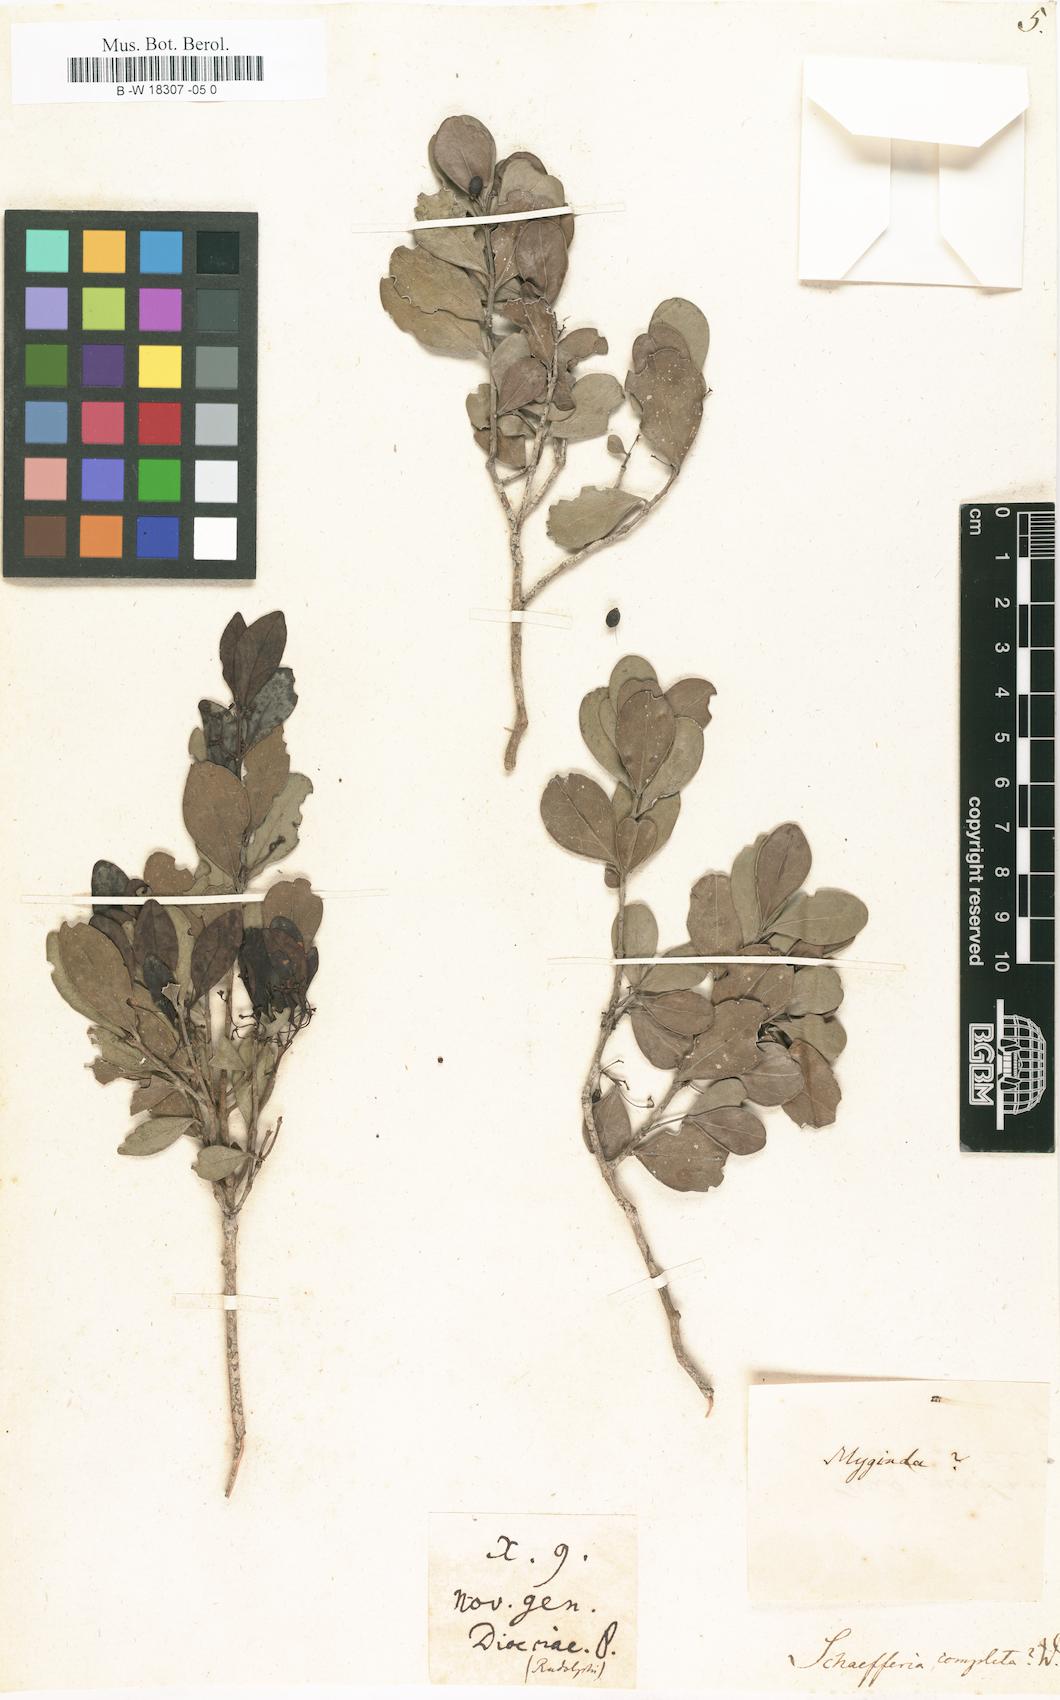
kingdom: Plantae
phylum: Tracheophyta
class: Magnoliopsida
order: Celastrales
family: Celastraceae
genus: Schaefferia
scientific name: Schaefferia frutescens
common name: Boxwood
